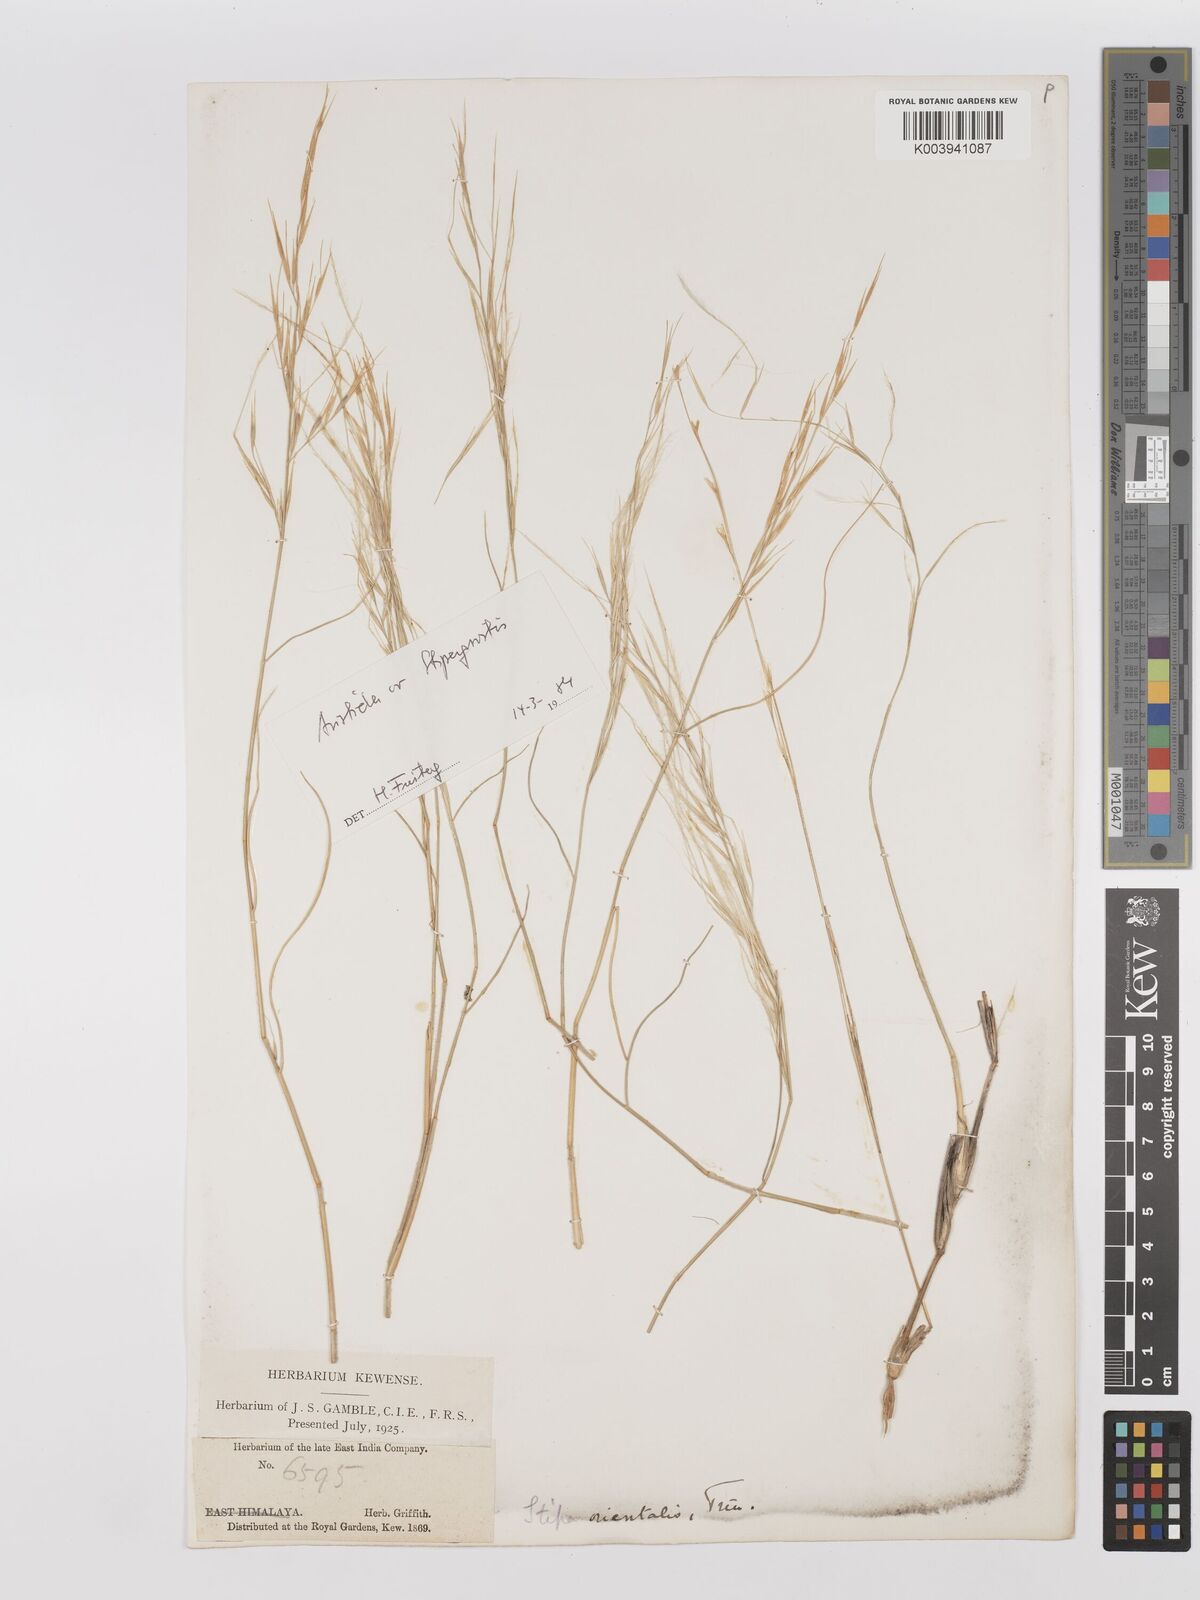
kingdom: Plantae
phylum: Tracheophyta
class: Liliopsida
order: Poales
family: Poaceae
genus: Stipagrostis
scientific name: Stipagrostis plumosa
